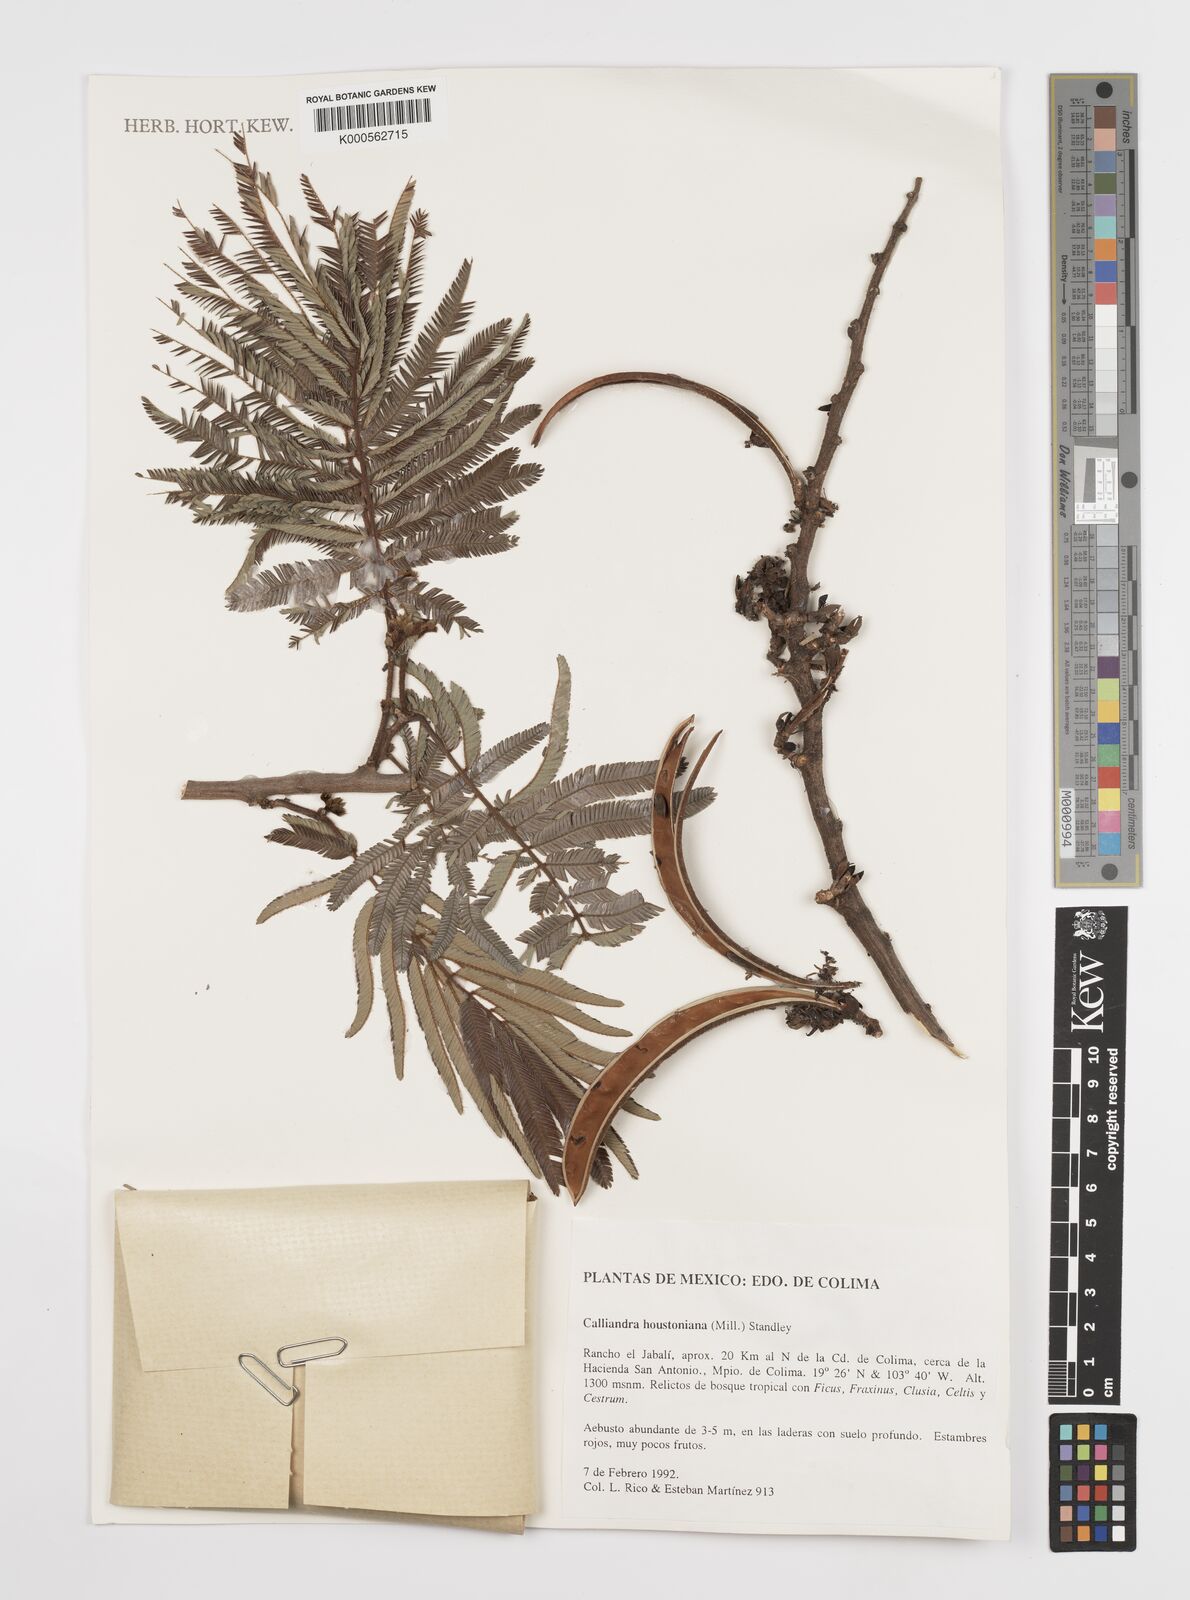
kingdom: Plantae
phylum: Tracheophyta
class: Magnoliopsida
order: Fabales
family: Fabaceae
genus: Calliandra
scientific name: Calliandra houstoniana
